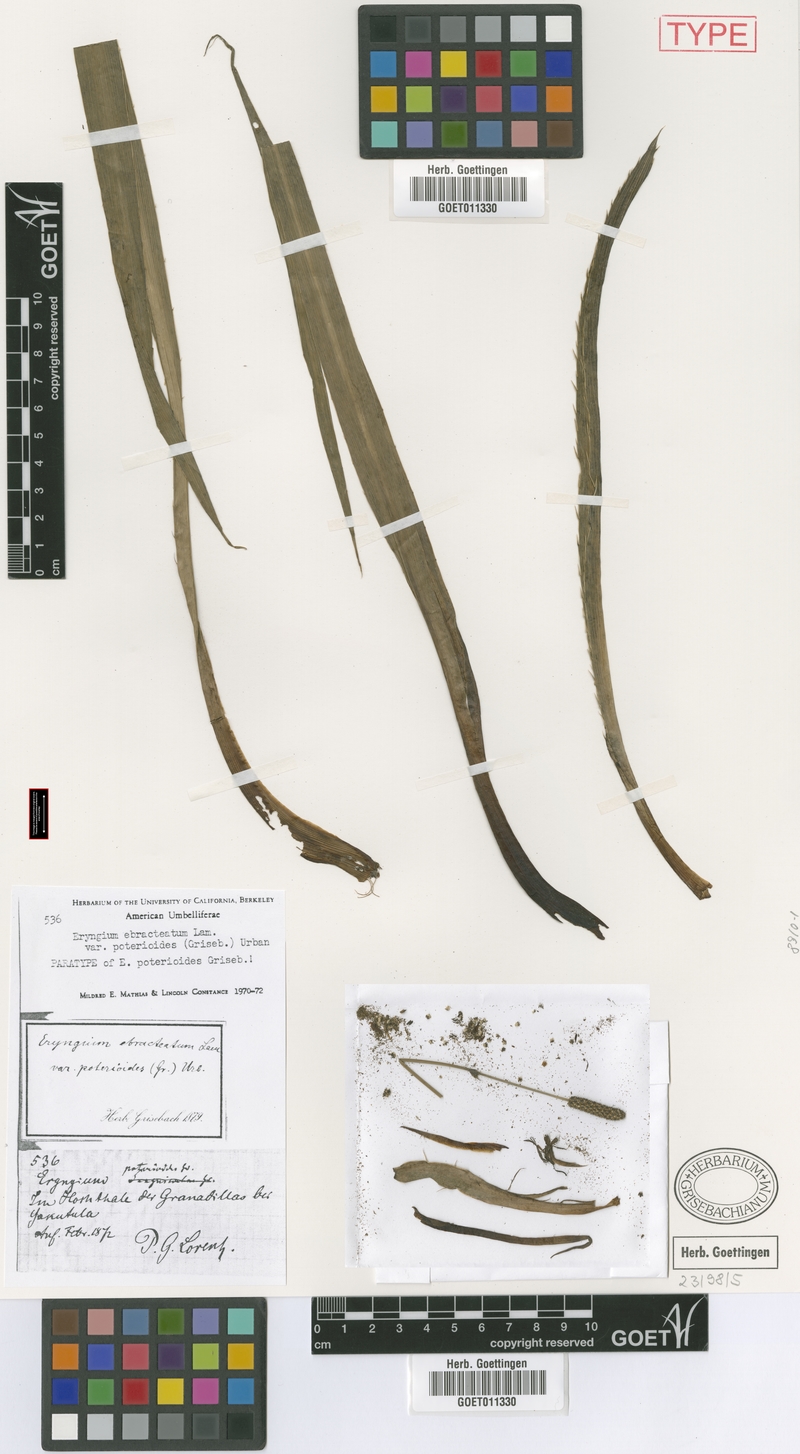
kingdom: Plantae
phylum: Tracheophyta
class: Magnoliopsida
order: Apiales
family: Apiaceae
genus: Eryngium
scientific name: Eryngium ebracteatum
